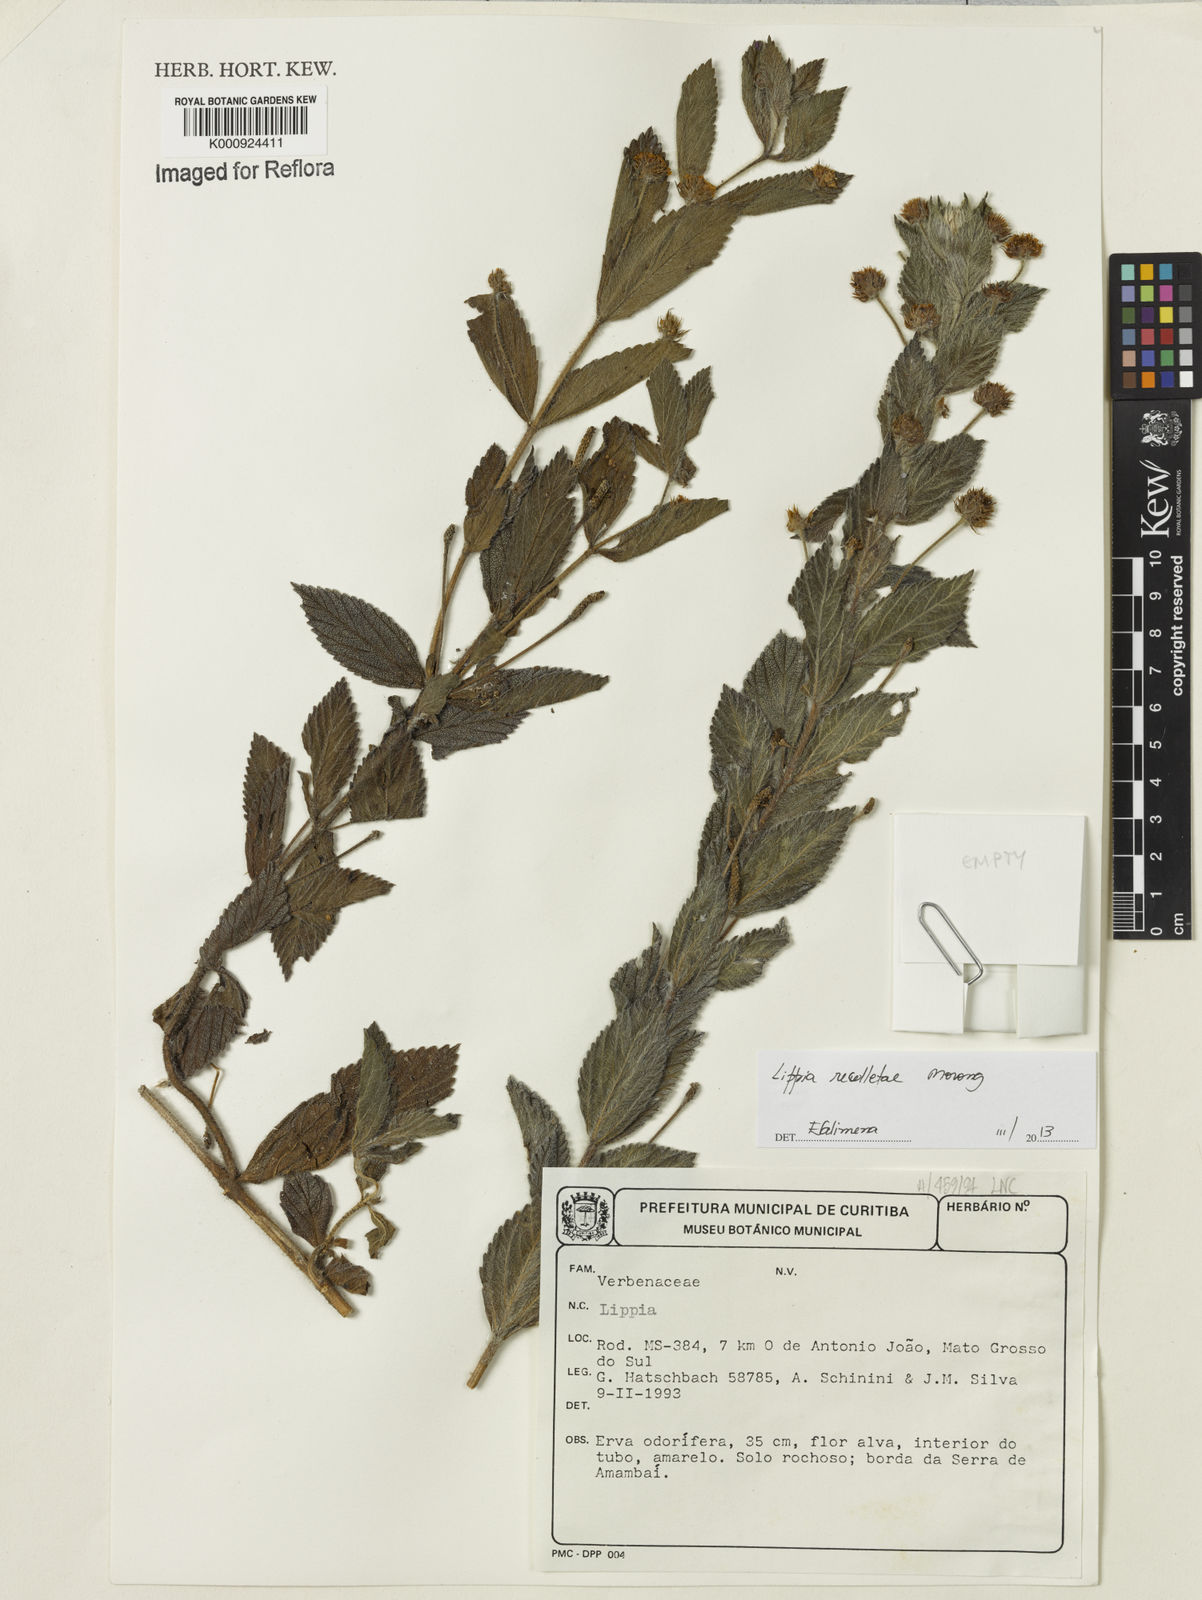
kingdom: Plantae
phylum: Tracheophyta
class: Magnoliopsida
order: Lamiales
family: Verbenaceae
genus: Lippia
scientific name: Lippia
